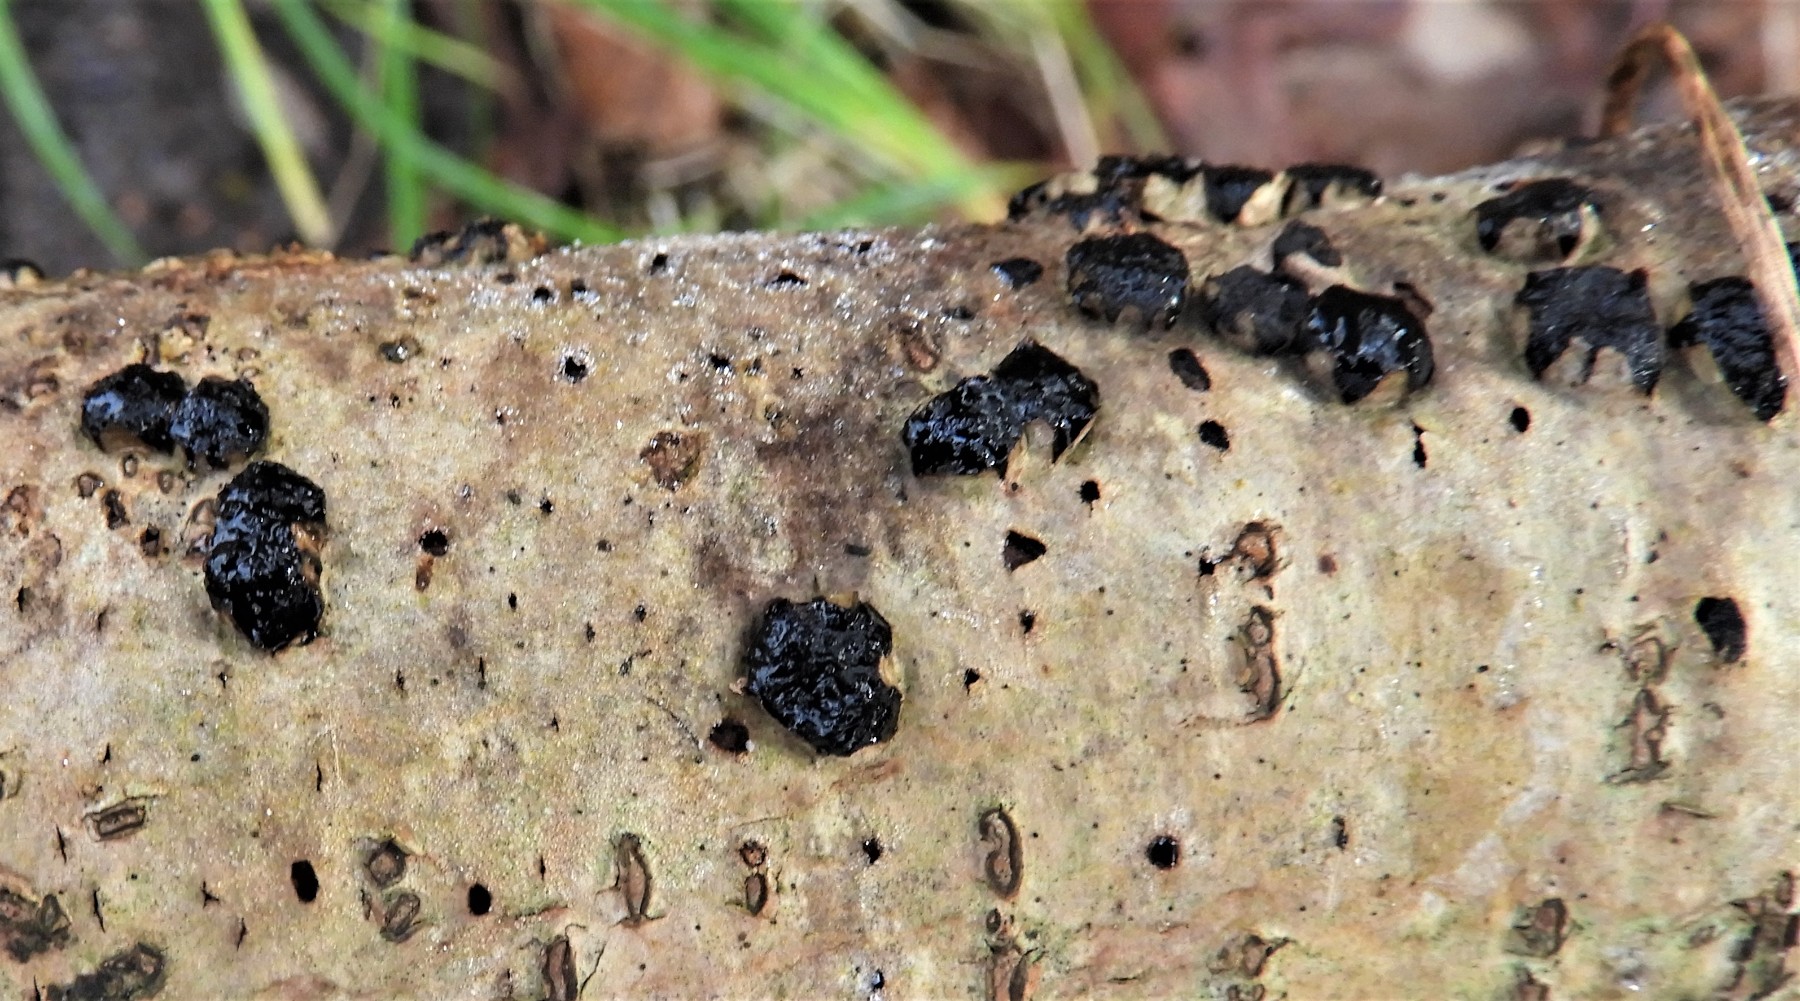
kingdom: Fungi
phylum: Ascomycota
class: Sordariomycetes
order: Xylariales
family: Diatrypaceae
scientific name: Diatrypaceae
